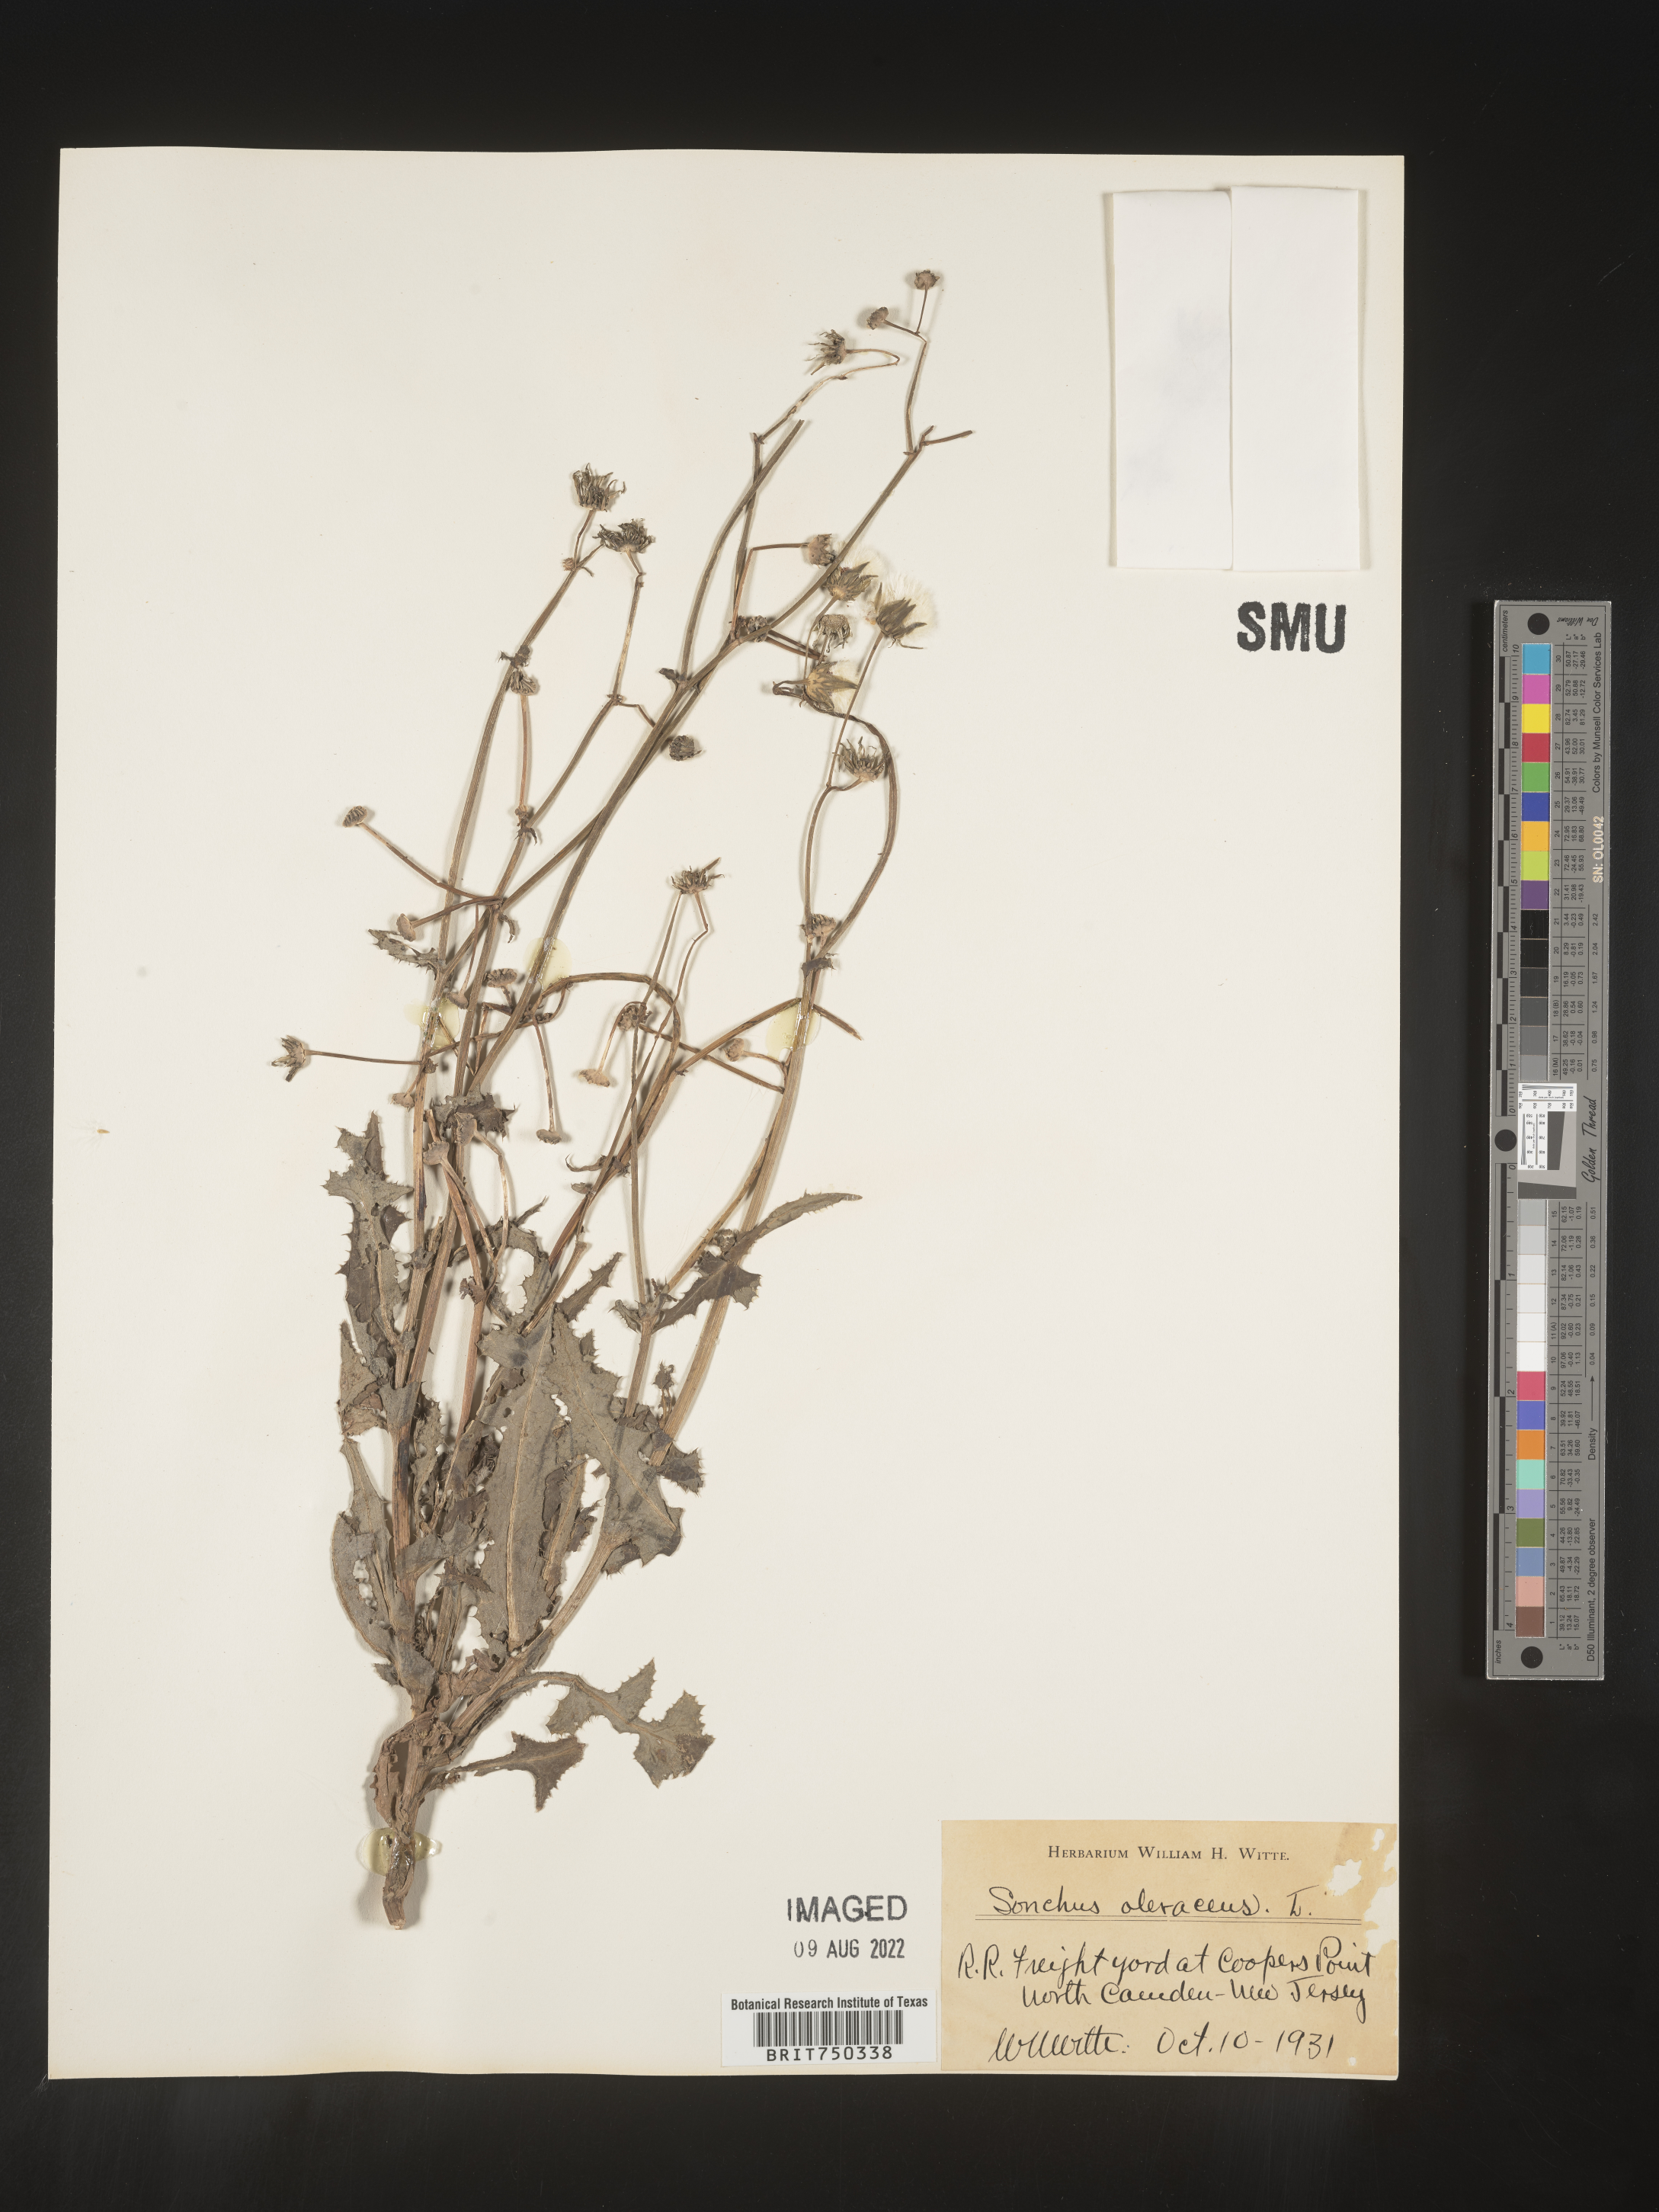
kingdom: Plantae
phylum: Tracheophyta
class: Magnoliopsida
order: Asterales
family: Asteraceae
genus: Sonchus
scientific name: Sonchus oleraceus
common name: Common sowthistle
